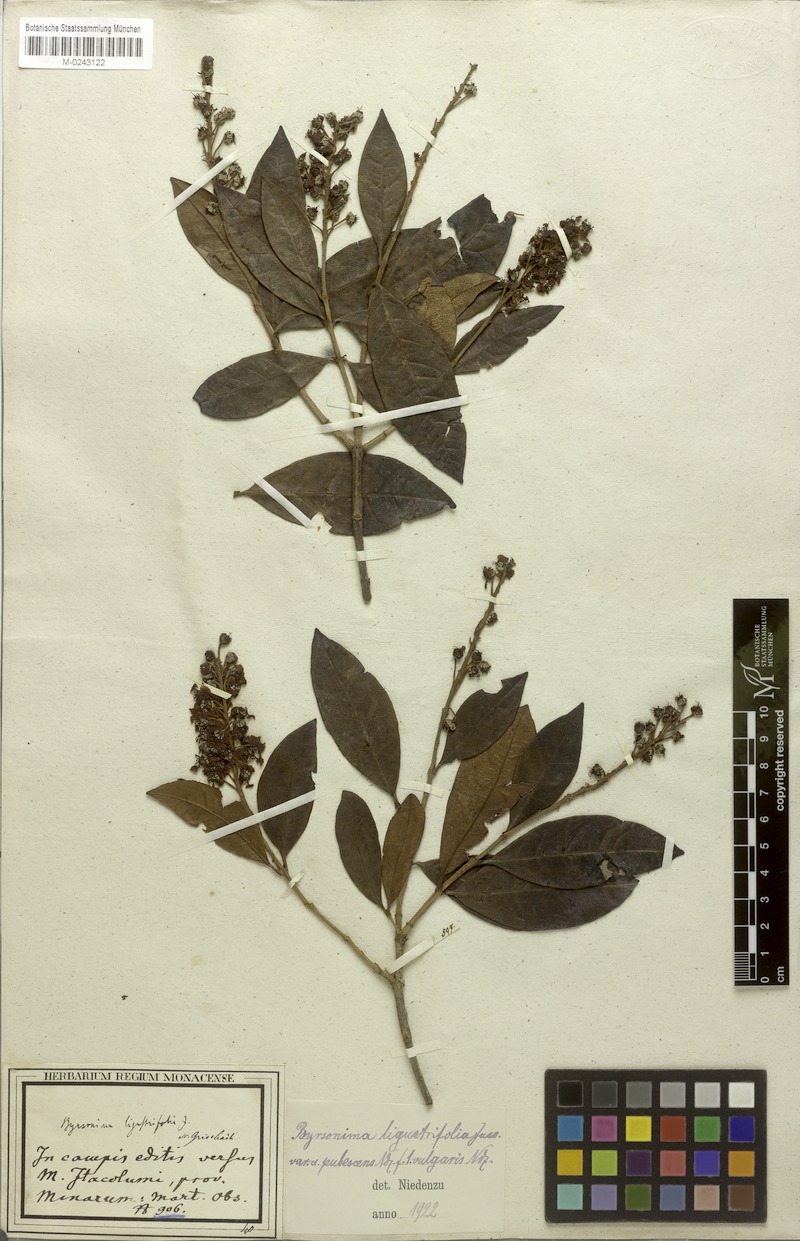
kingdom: Plantae
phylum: Tracheophyta
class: Magnoliopsida
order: Malpighiales
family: Malpighiaceae
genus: Byrsonima
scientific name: Byrsonima ligustrifolia
